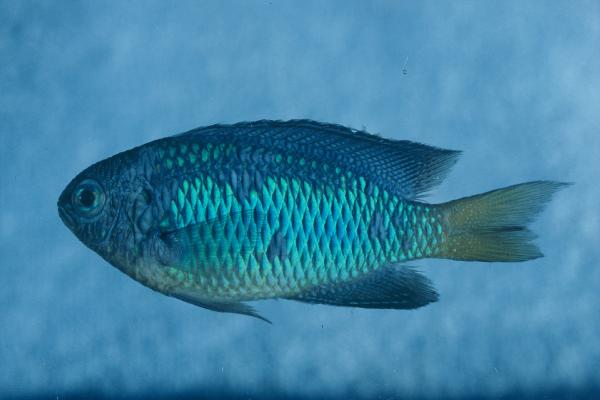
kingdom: Animalia
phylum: Chordata
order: Perciformes
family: Pomacentridae
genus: Pomacentrus
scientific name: Pomacentrus coelestis
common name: Neon damsel
